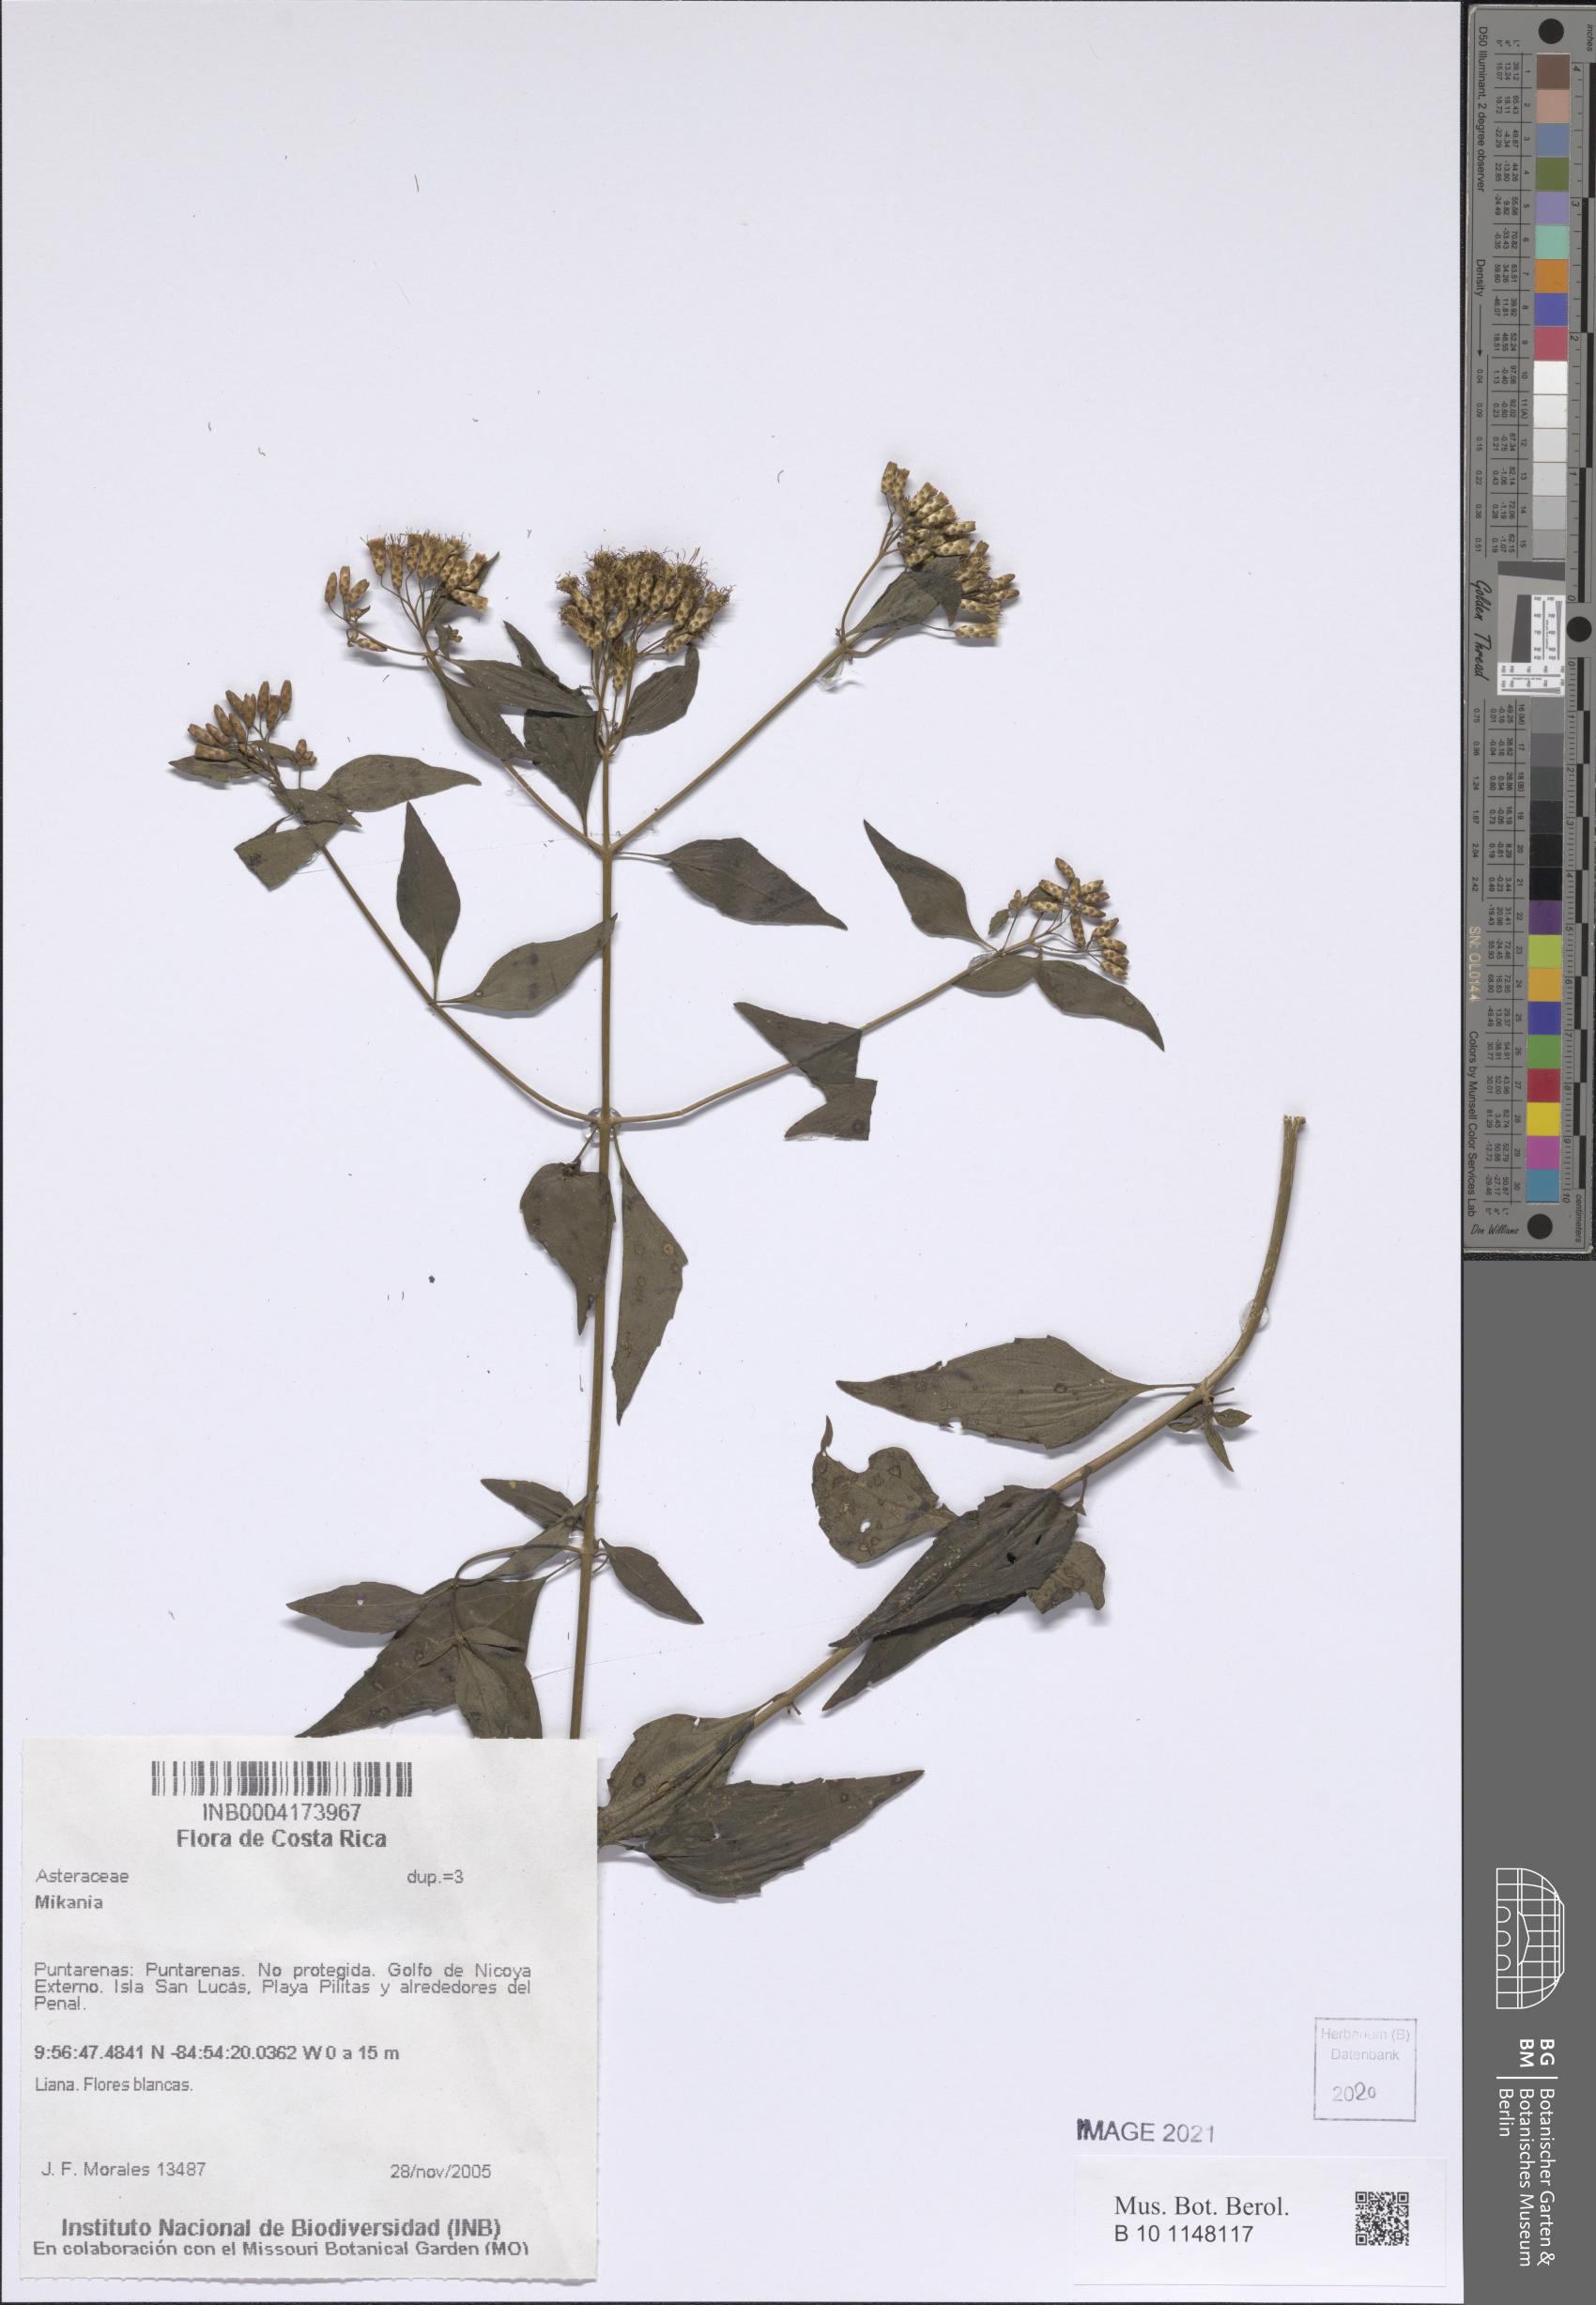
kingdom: Plantae
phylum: Tracheophyta
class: Magnoliopsida
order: Asterales
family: Asteraceae
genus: Mikania
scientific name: Mikania
